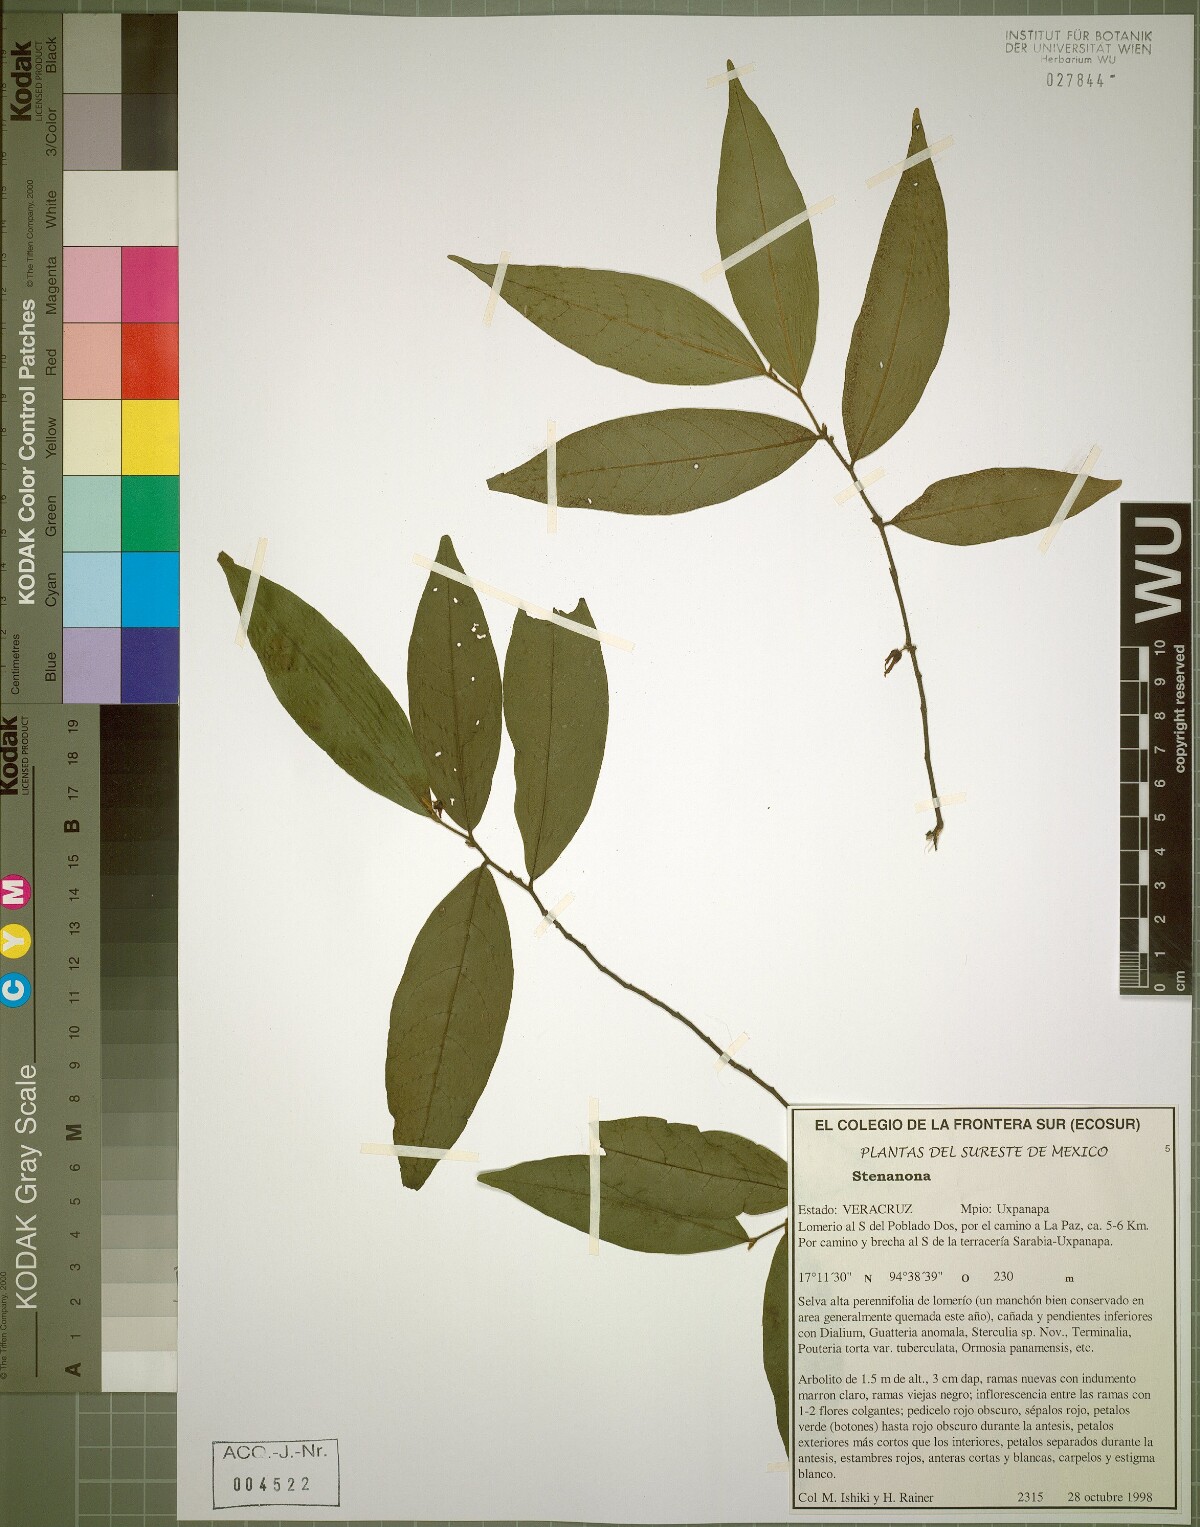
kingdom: Plantae
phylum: Tracheophyta
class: Magnoliopsida
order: Magnoliales
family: Annonaceae
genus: Stenanona
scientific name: Stenanona
